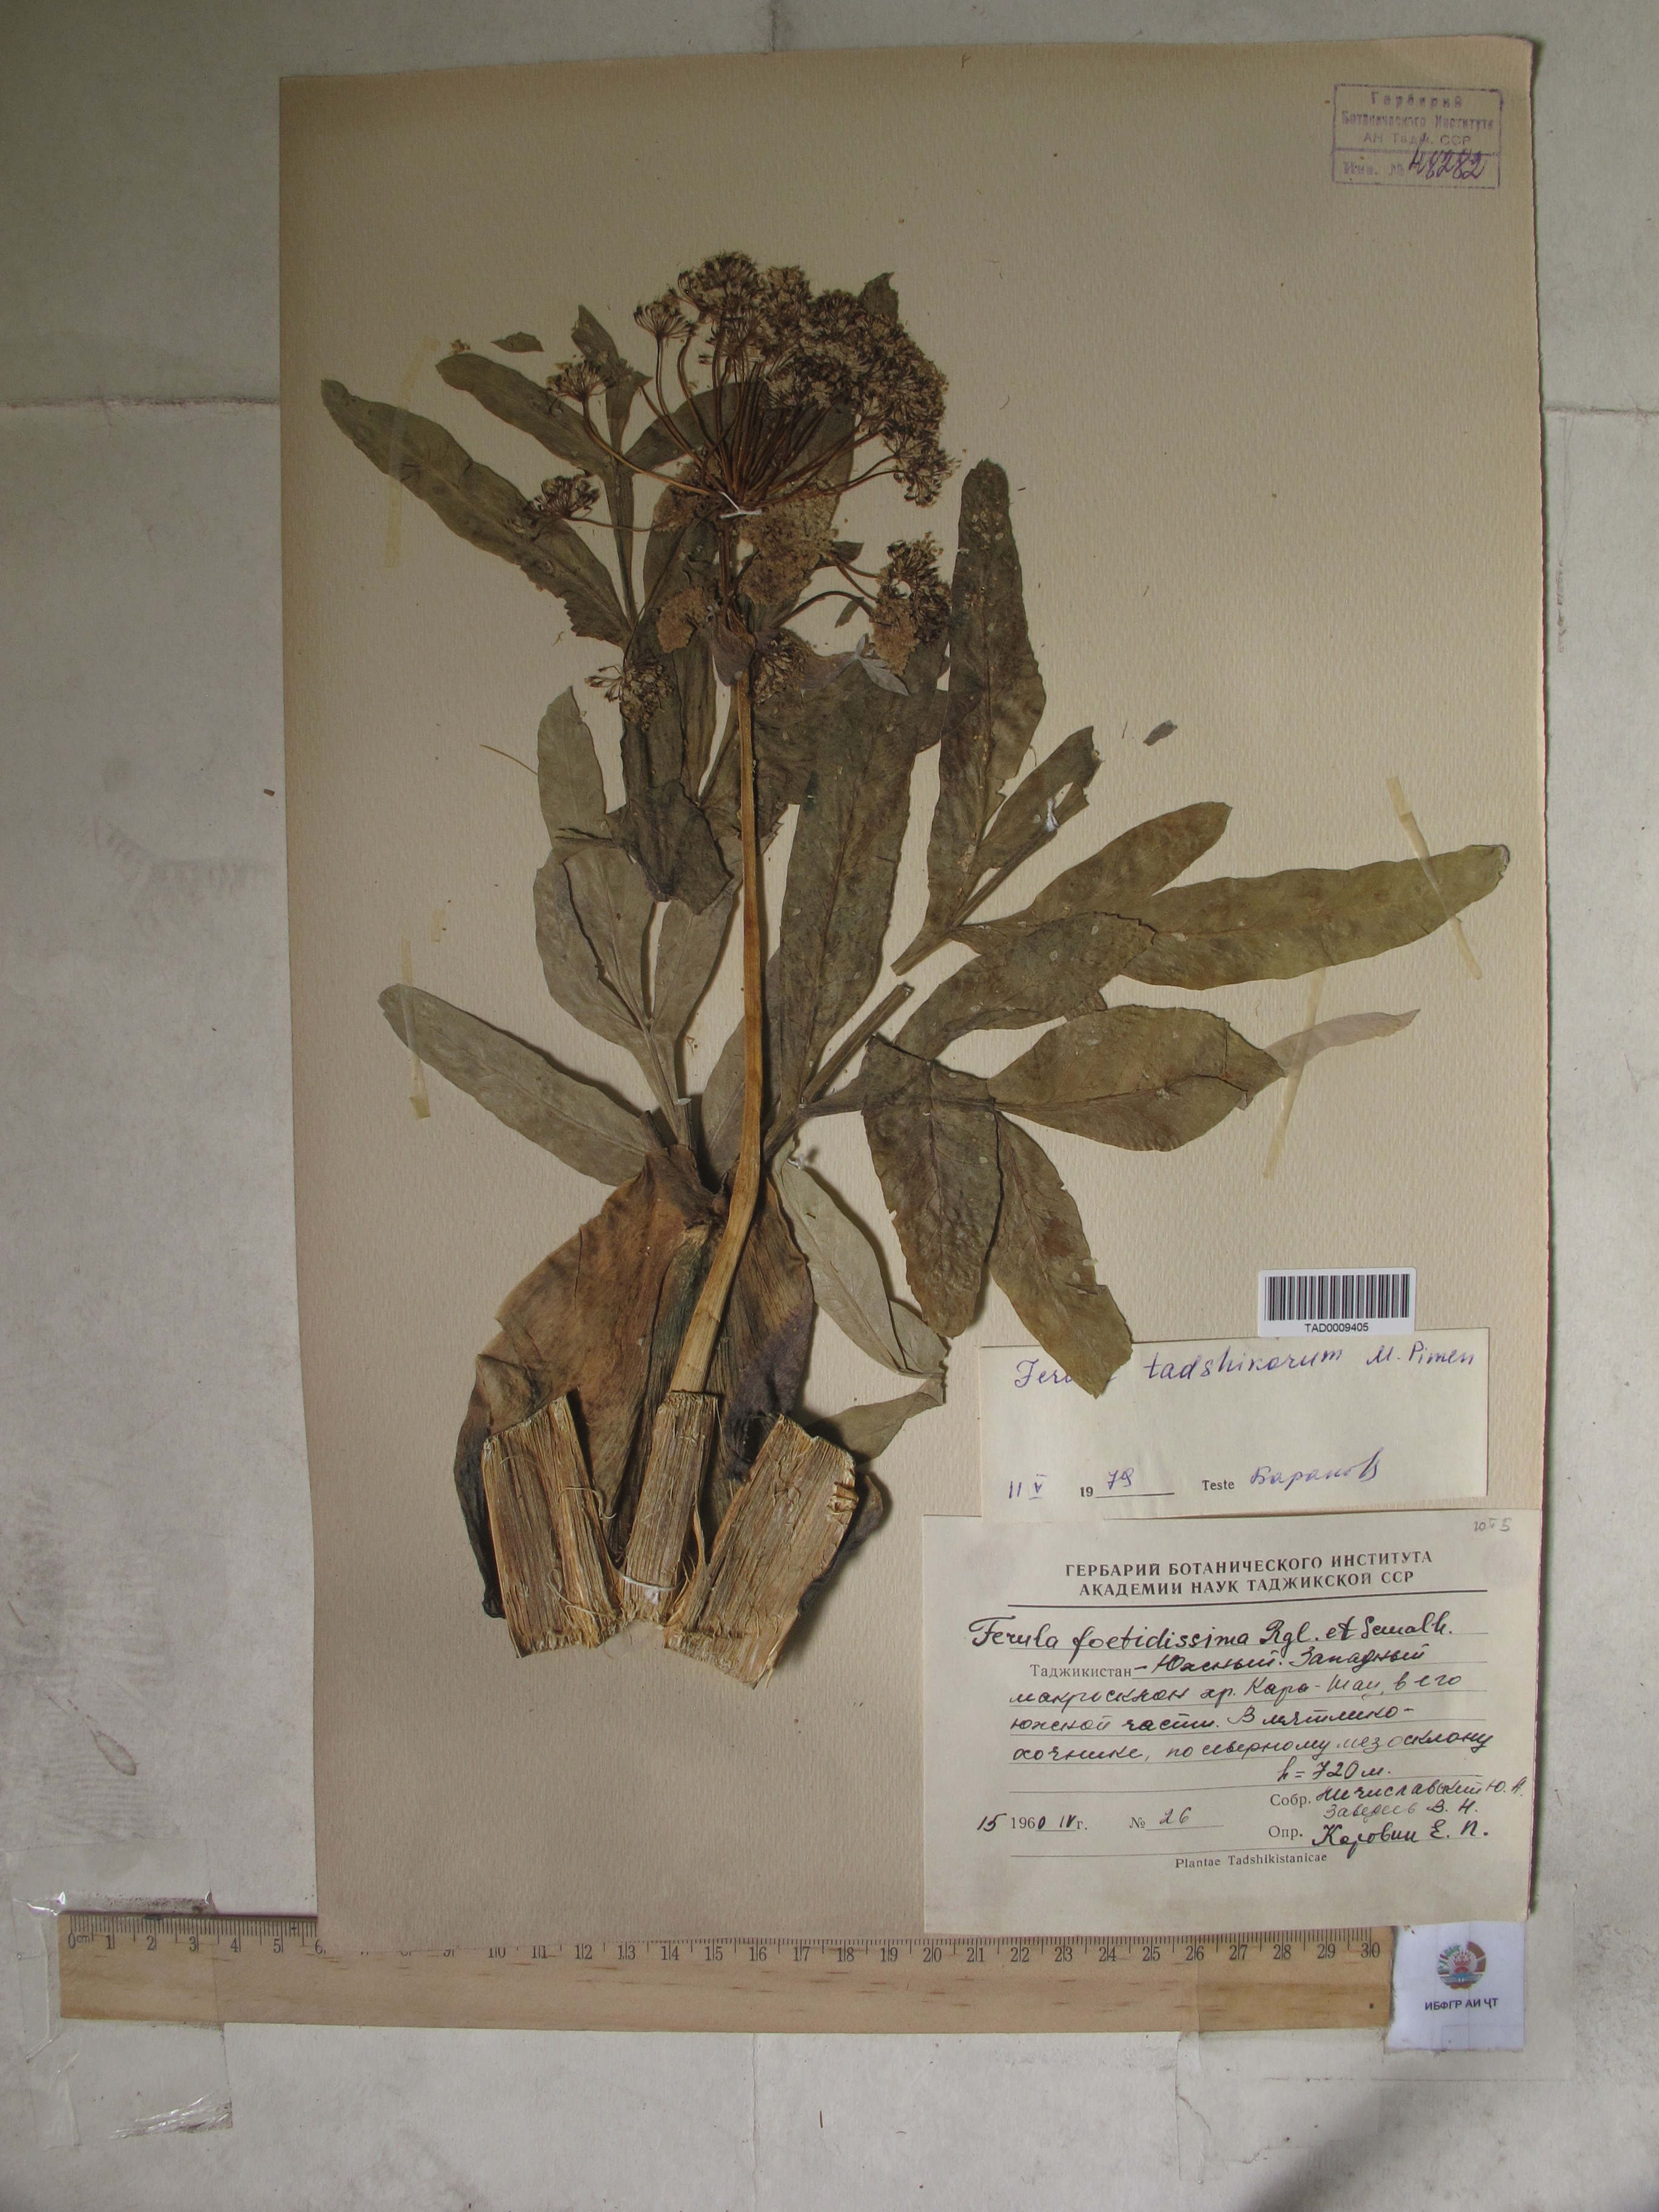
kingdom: Plantae
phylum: Tracheophyta
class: Magnoliopsida
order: Apiales
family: Apiaceae
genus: Ferula
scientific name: Ferula foetidissima
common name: Raba
